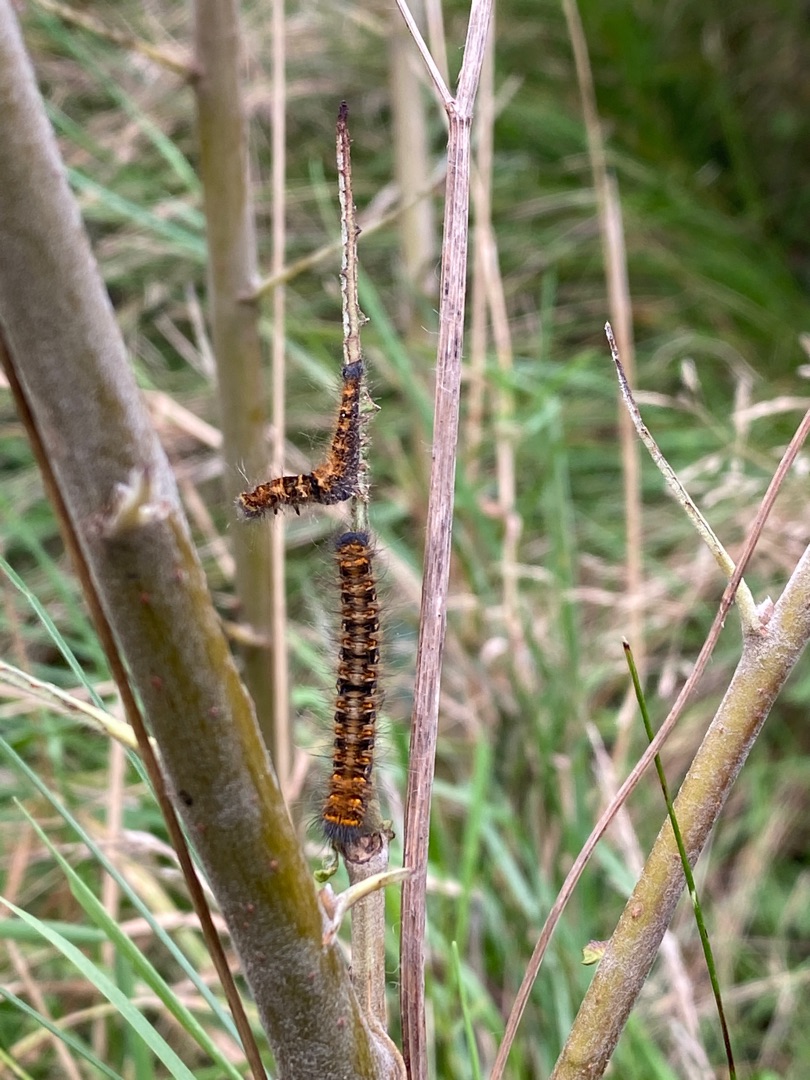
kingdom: Animalia
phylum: Arthropoda
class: Insecta
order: Lepidoptera
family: Lasiocampidae
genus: Lasiocampa
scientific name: Lasiocampa quercus
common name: Egespinder
